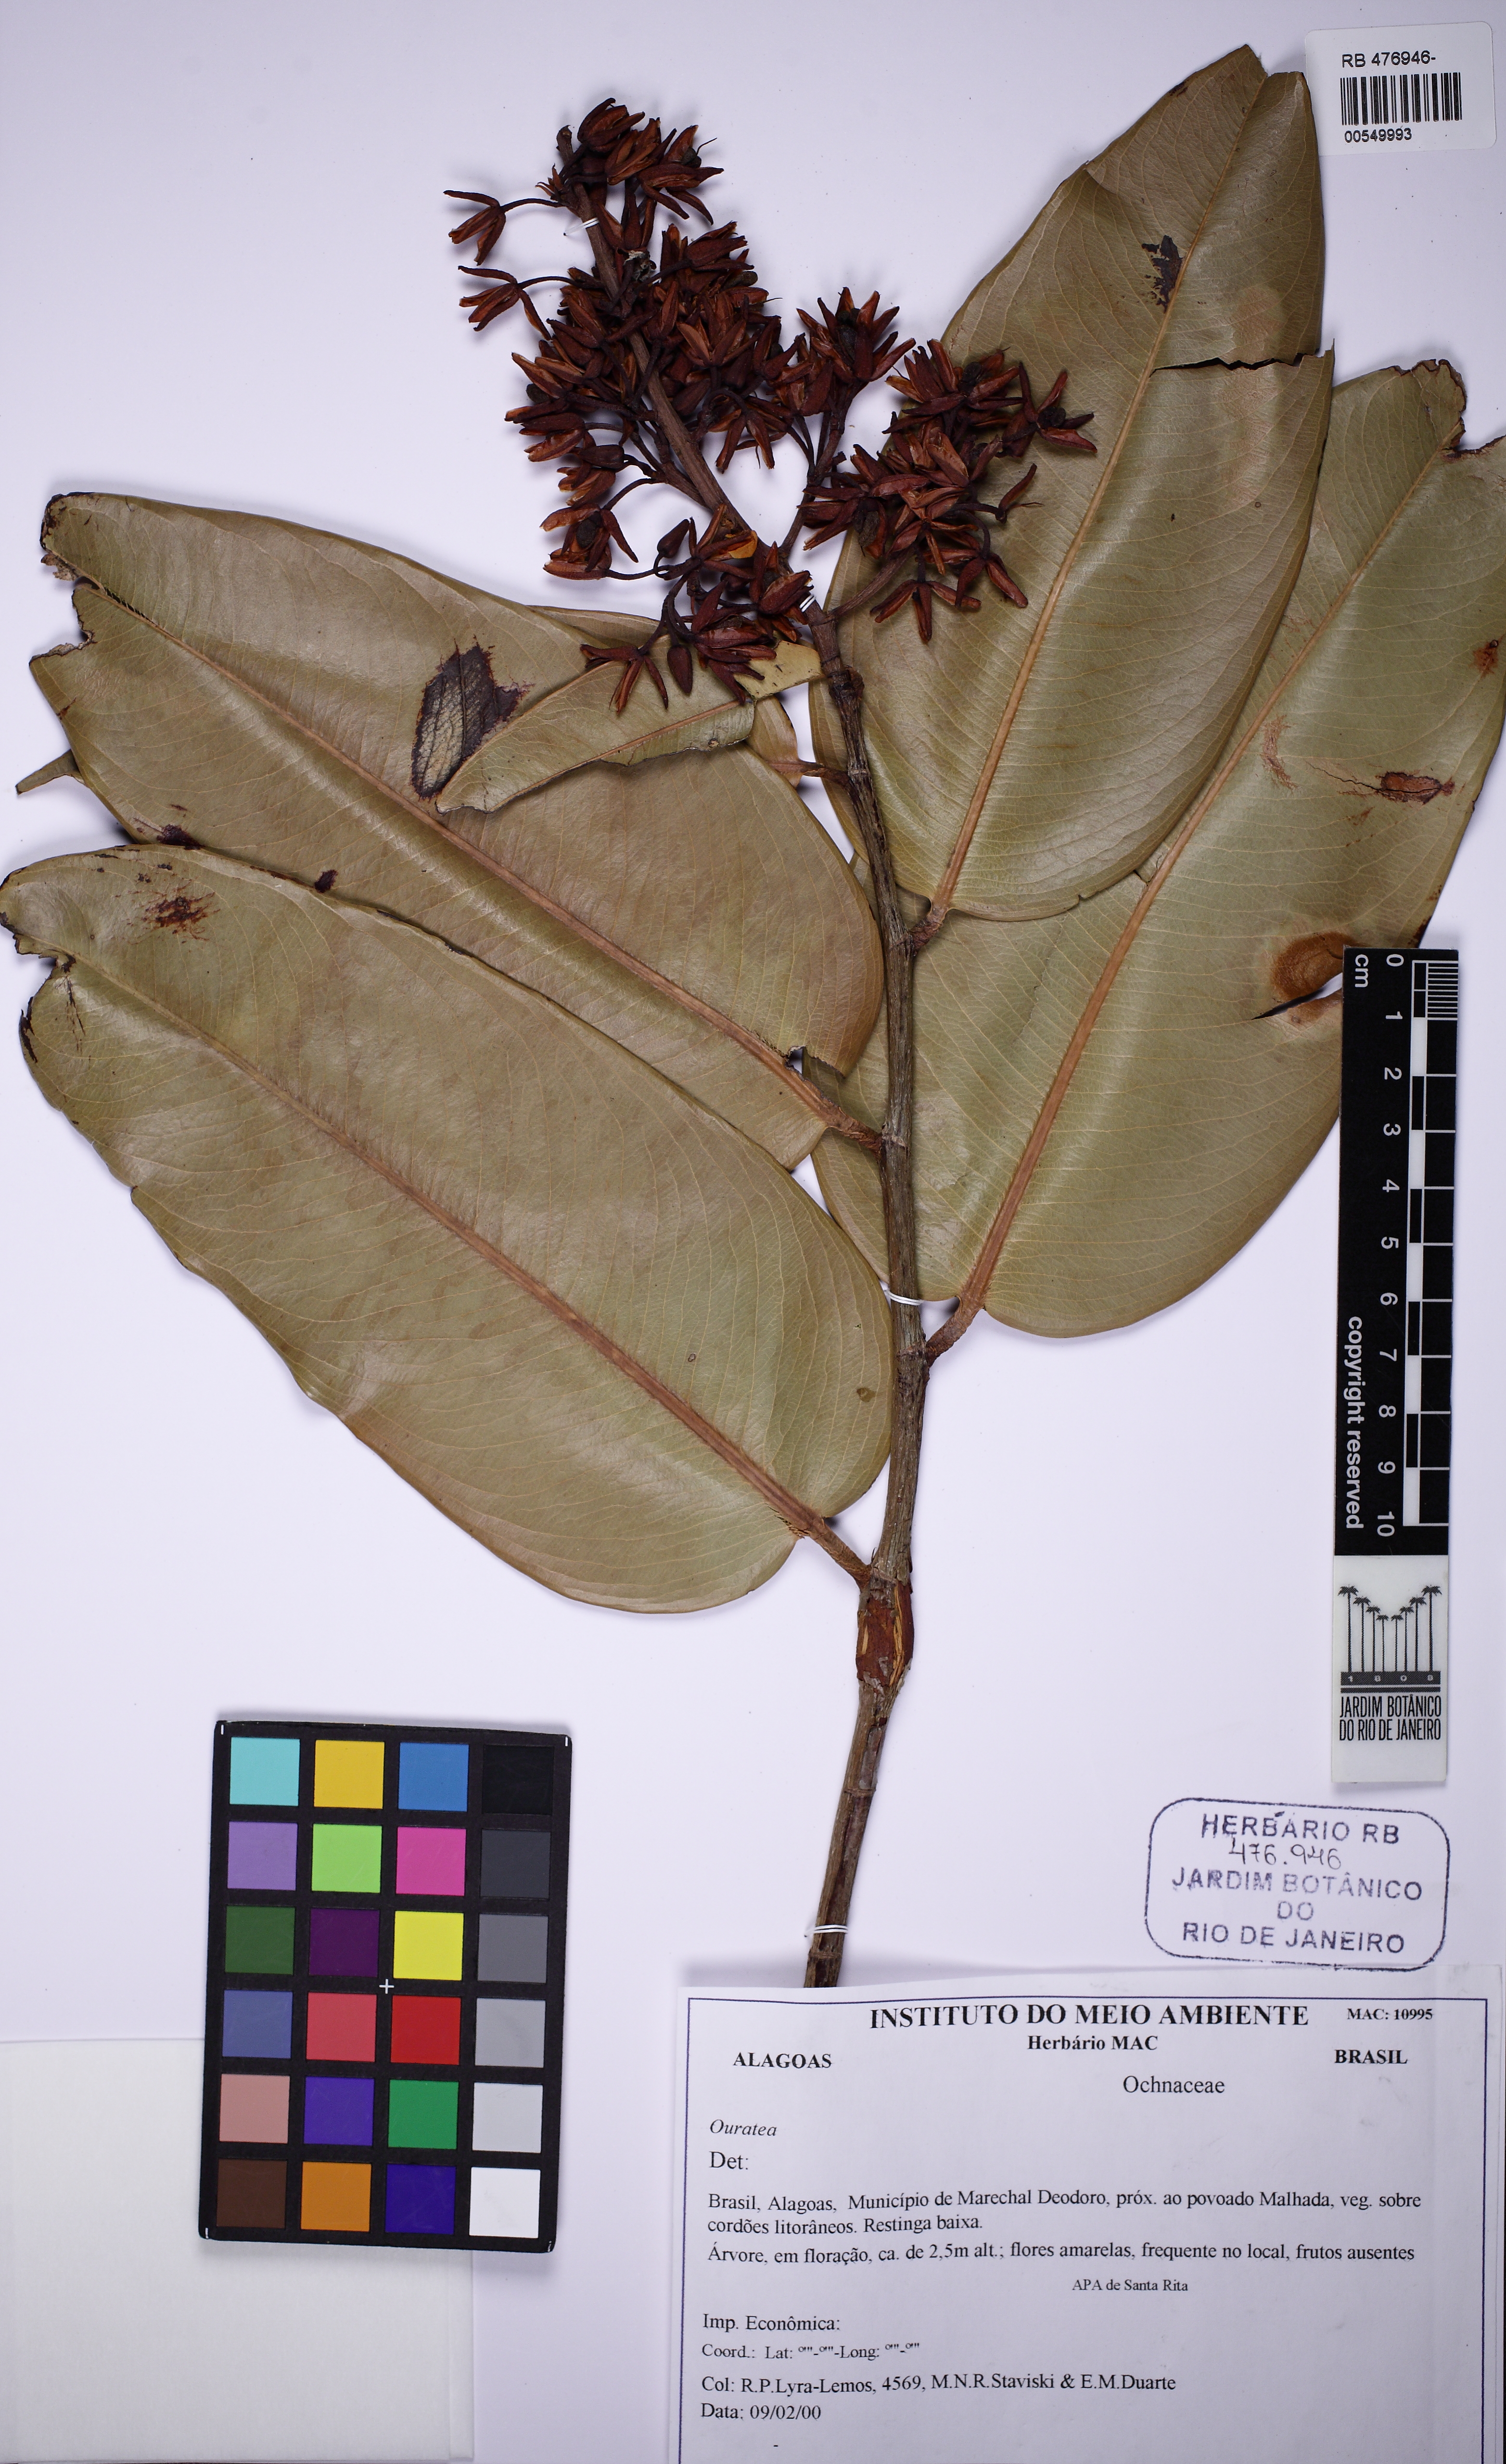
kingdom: Plantae
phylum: Tracheophyta
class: Magnoliopsida
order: Malpighiales
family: Ochnaceae
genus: Ouratea
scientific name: Ouratea robusta
